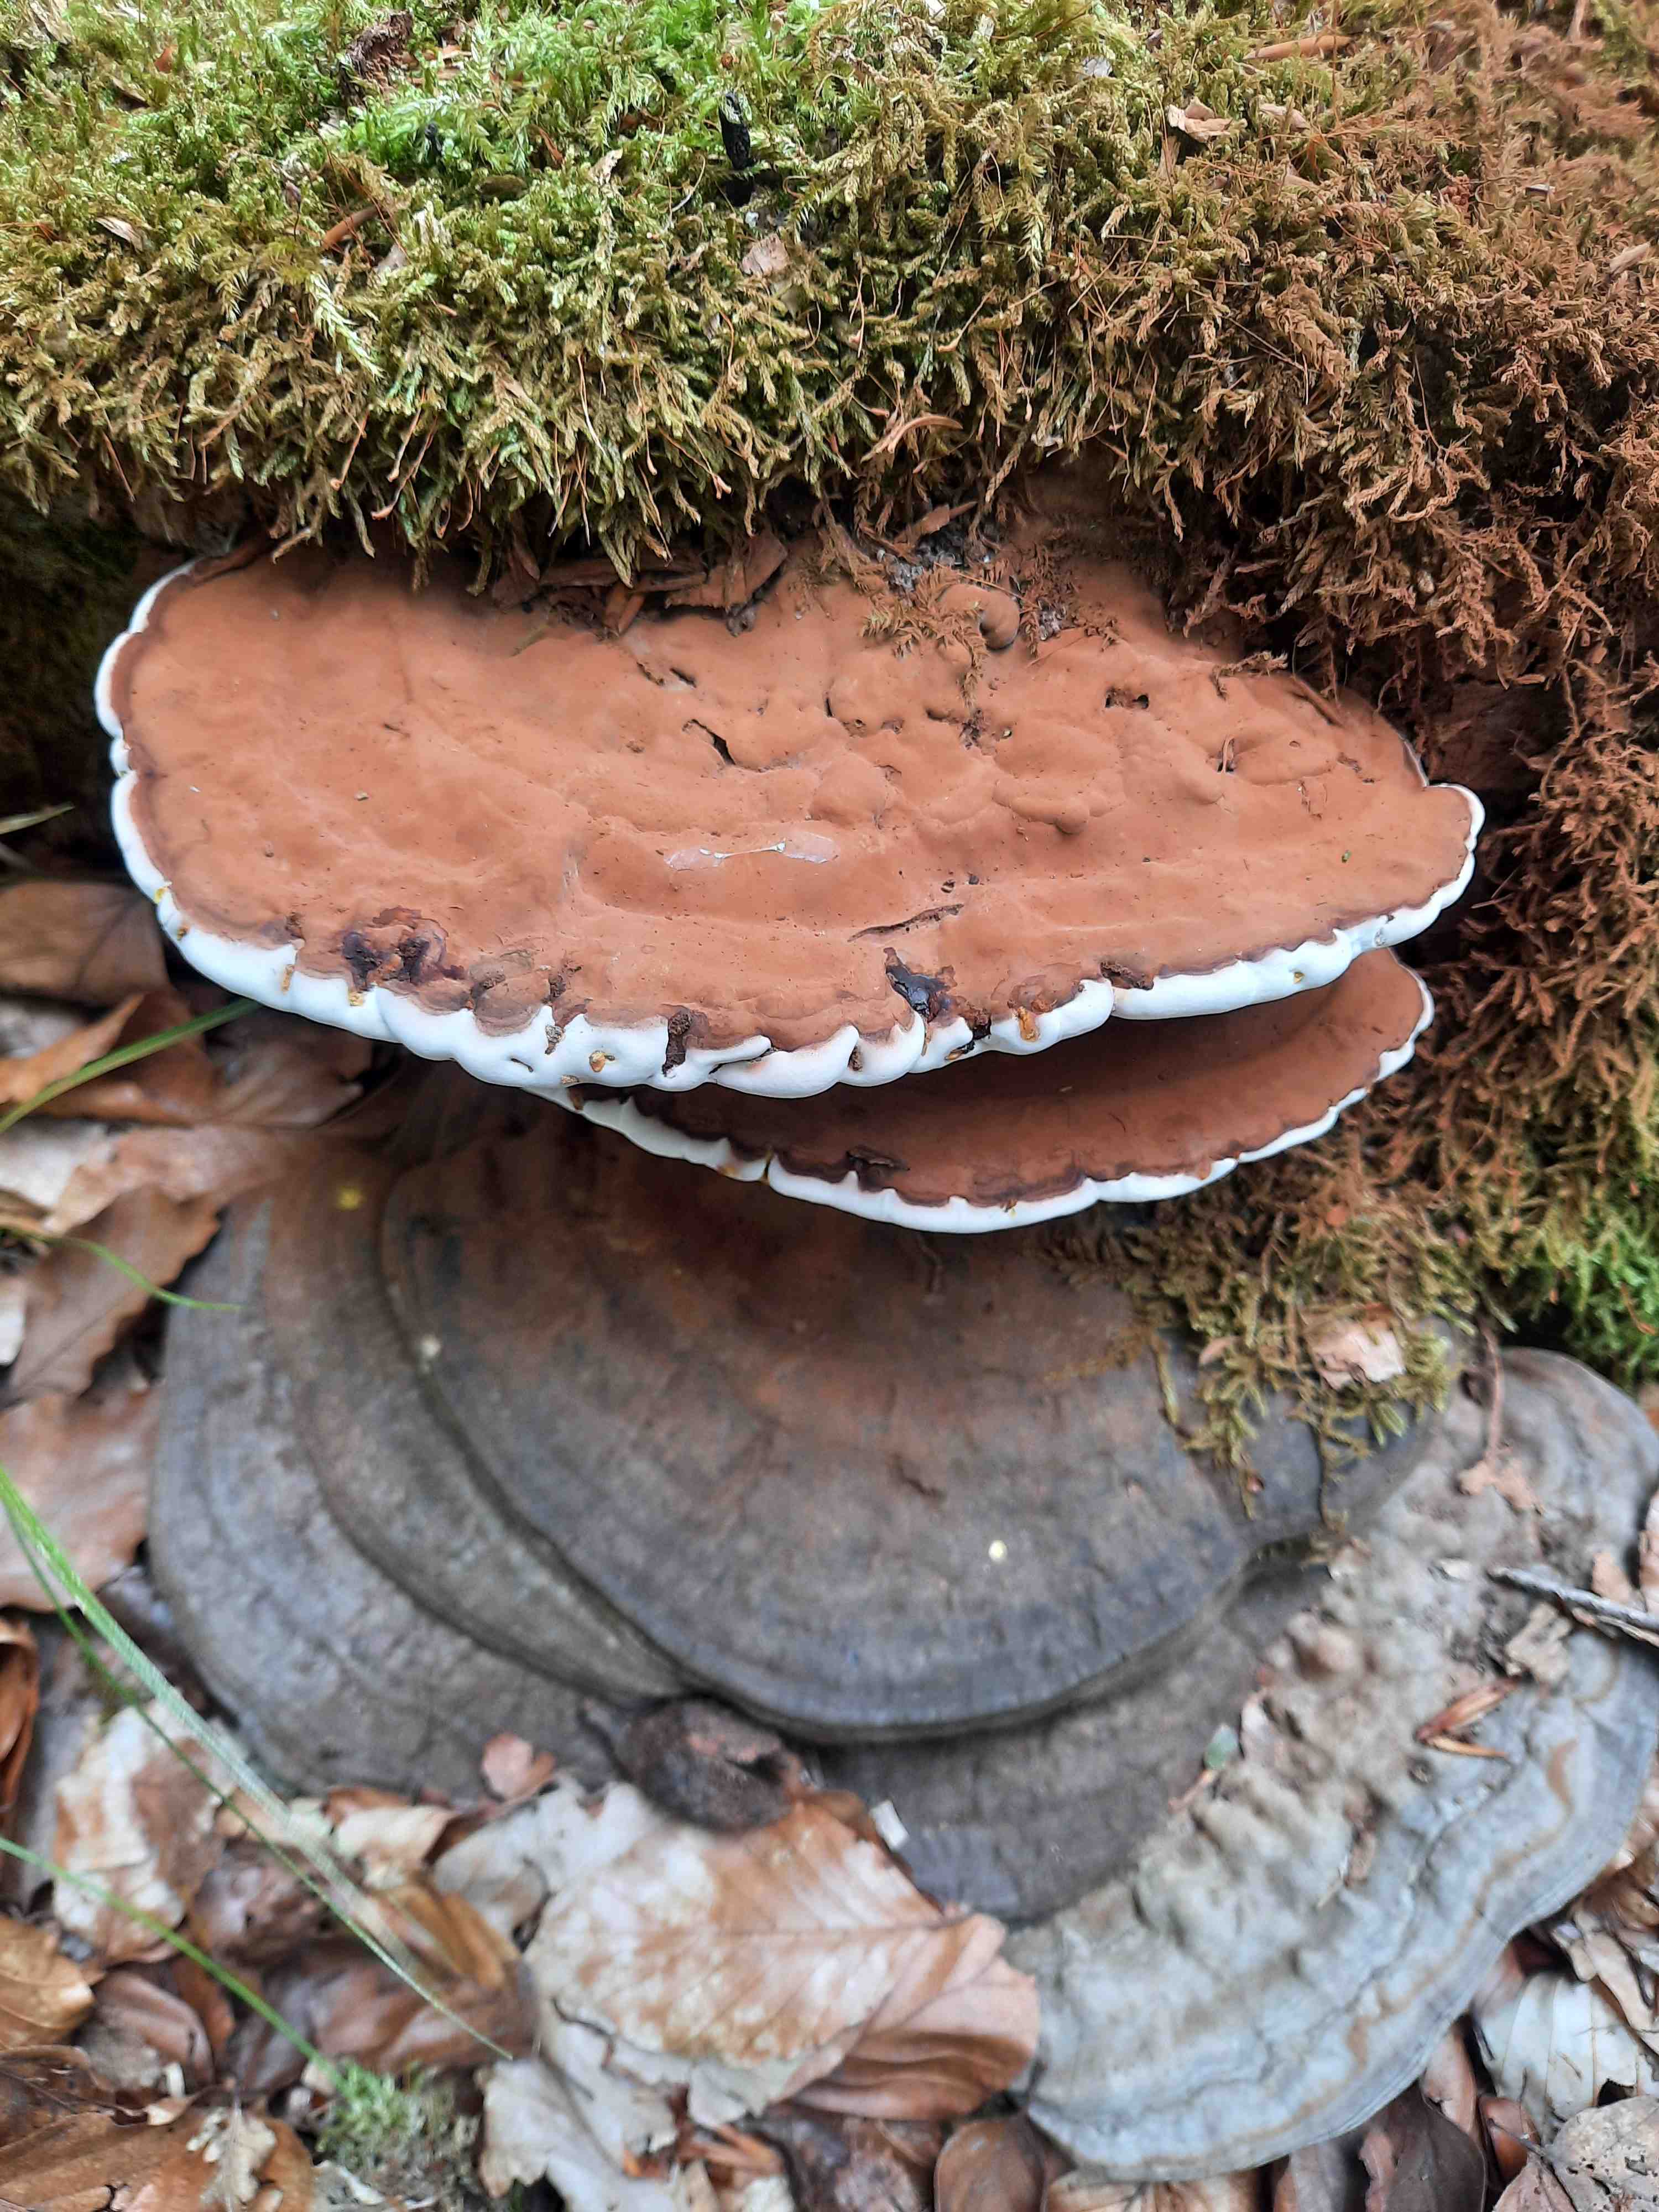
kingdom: Fungi
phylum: Basidiomycota
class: Agaricomycetes
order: Polyporales
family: Polyporaceae
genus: Ganoderma
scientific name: Ganoderma applanatum
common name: flad lakporesvamp
